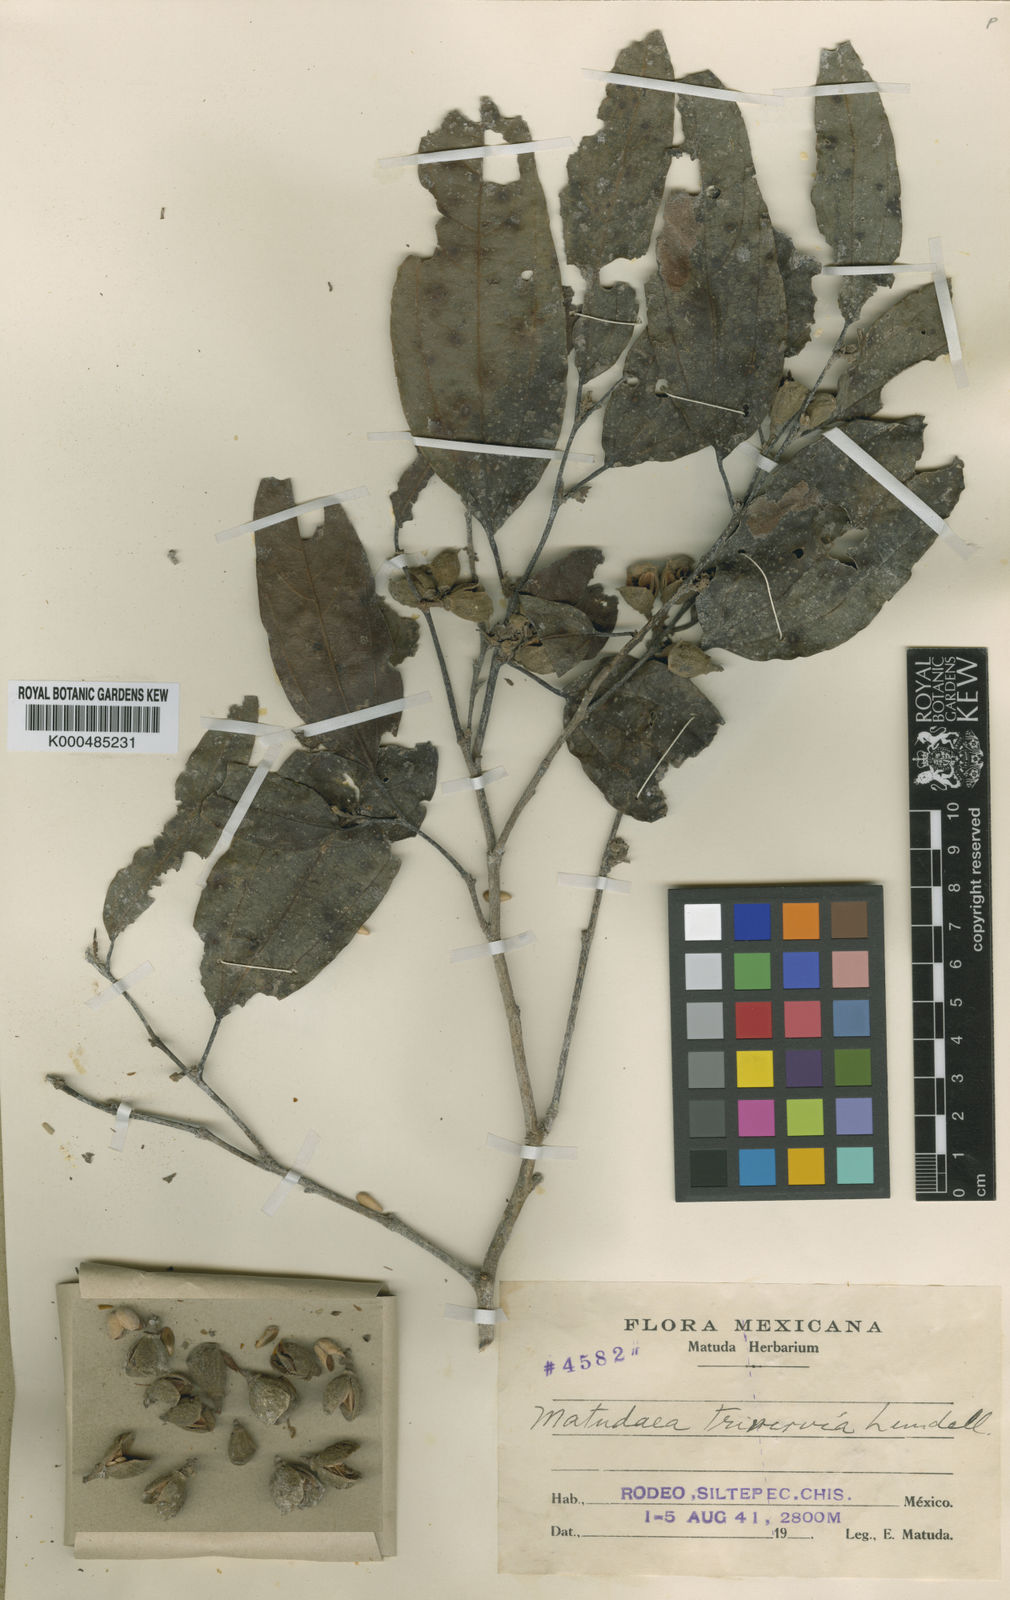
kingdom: Plantae
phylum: Tracheophyta
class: Magnoliopsida
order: Saxifragales
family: Hamamelidaceae
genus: Matudaea
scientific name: Matudaea trinervia
